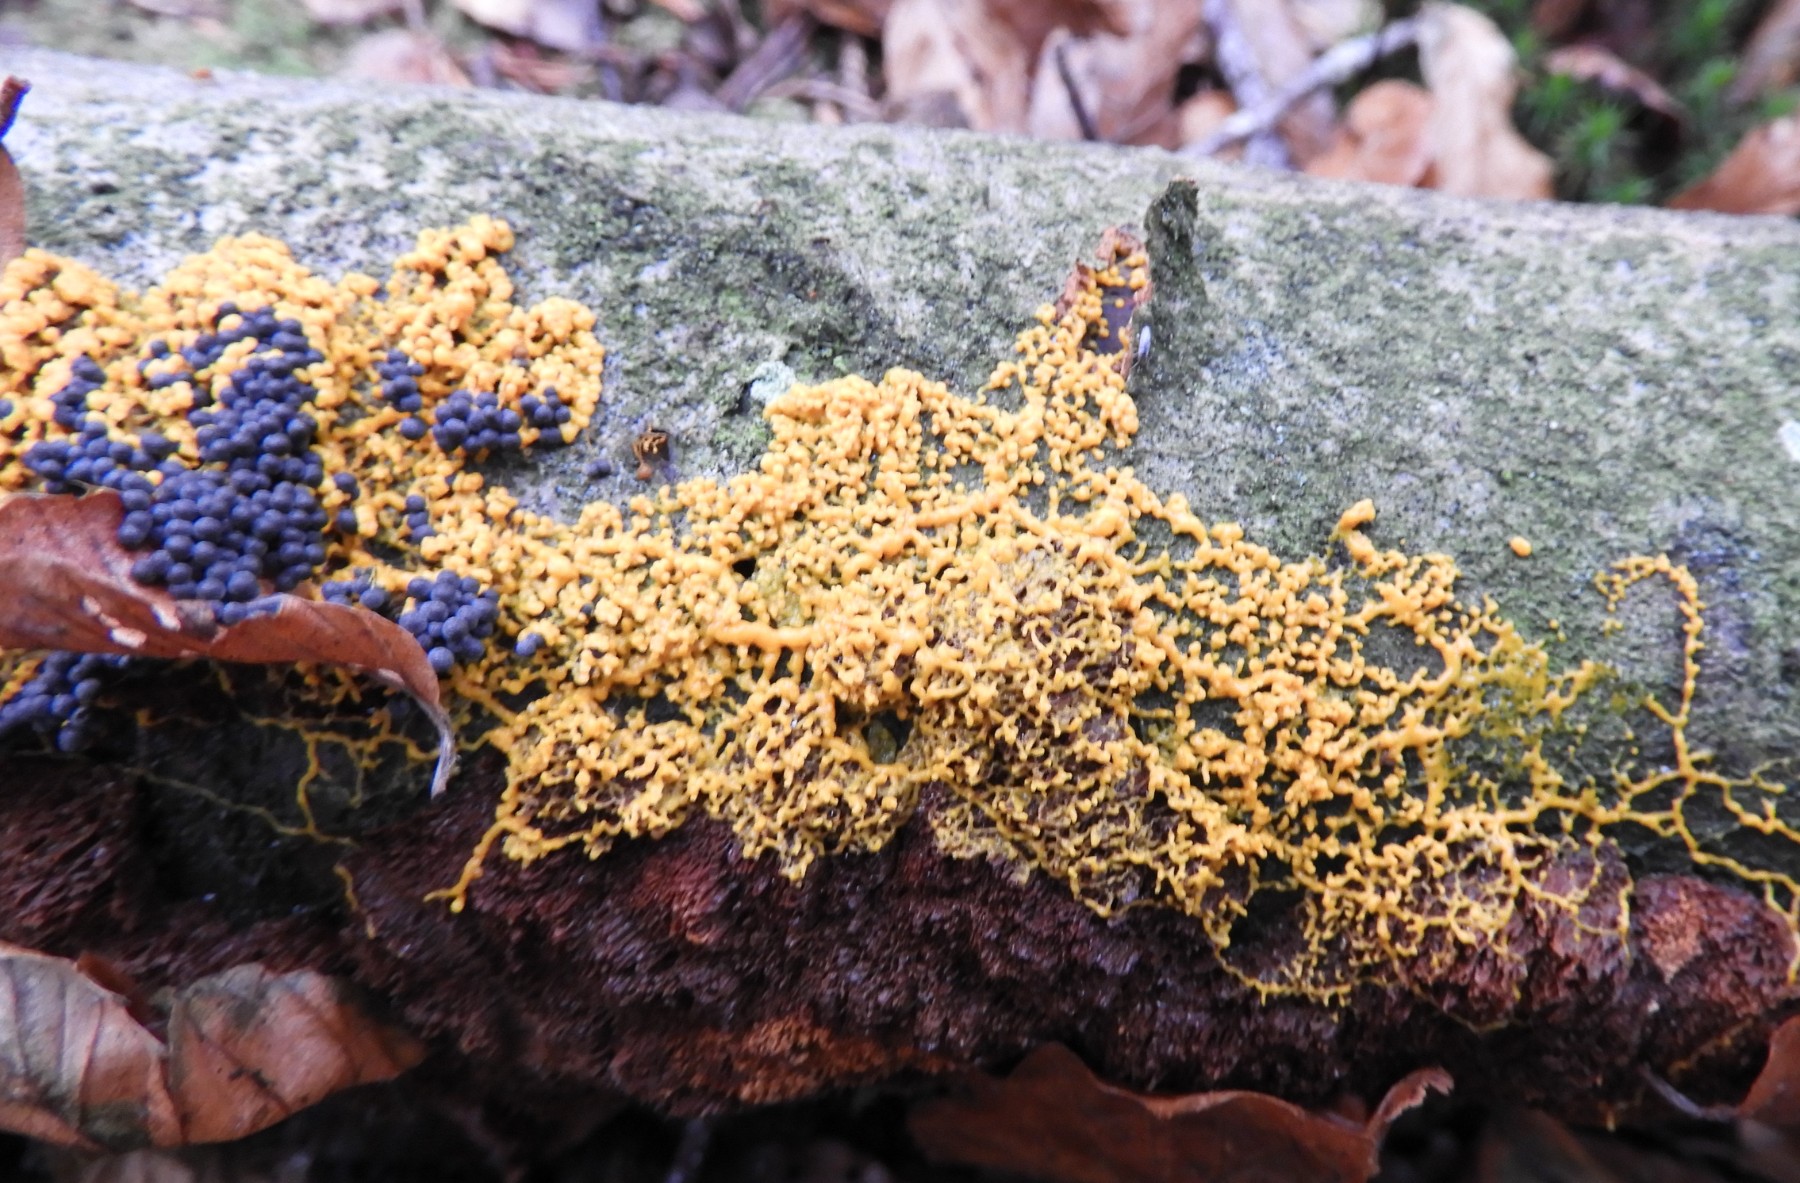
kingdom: Protozoa
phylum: Mycetozoa
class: Myxomycetes
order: Physarales
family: Physaraceae
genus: Badhamia
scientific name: Badhamia utricularis
